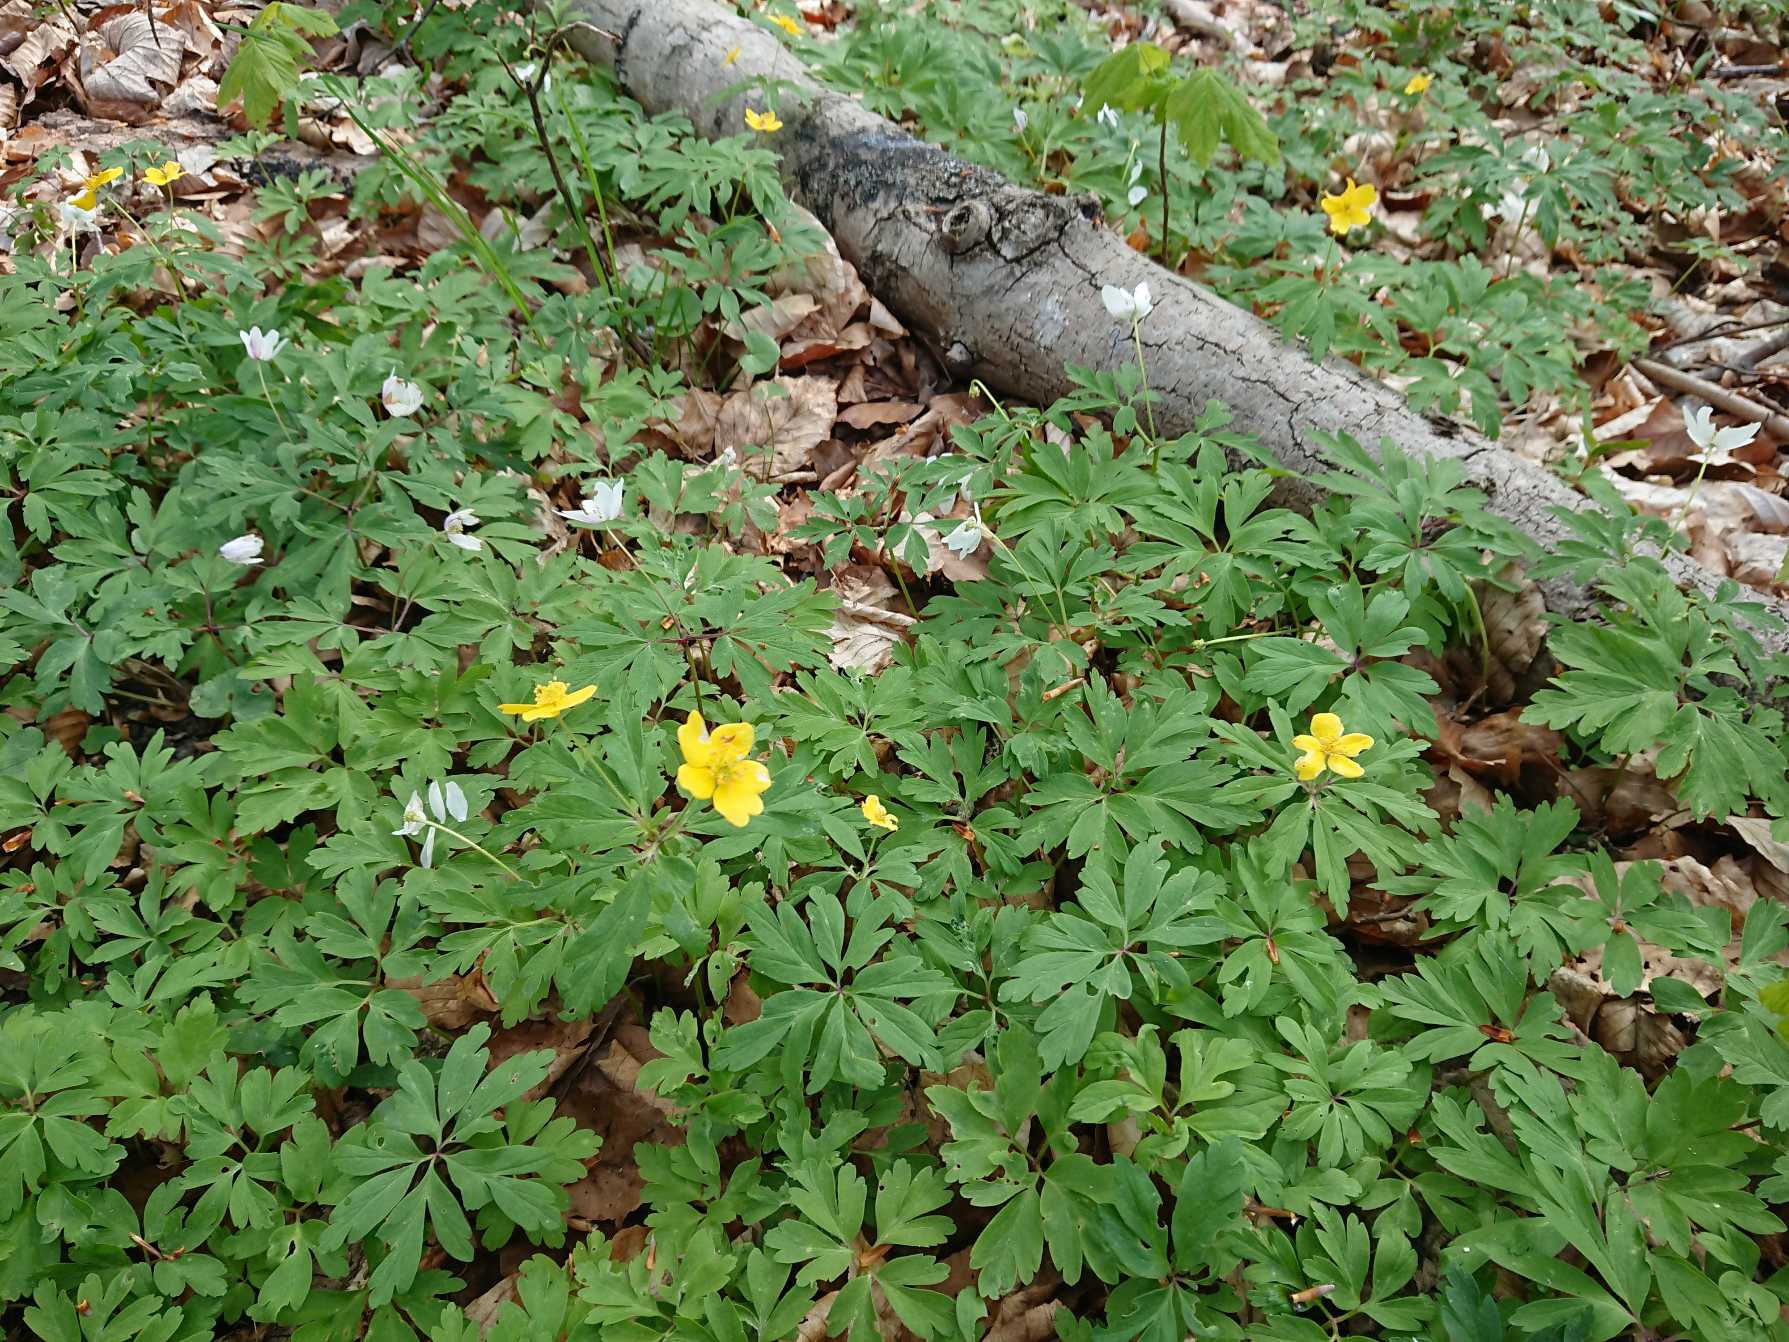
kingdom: Plantae
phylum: Tracheophyta
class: Magnoliopsida
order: Ranunculales
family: Ranunculaceae
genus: Anemone
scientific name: Anemone ranunculoides
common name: Gul anemone
